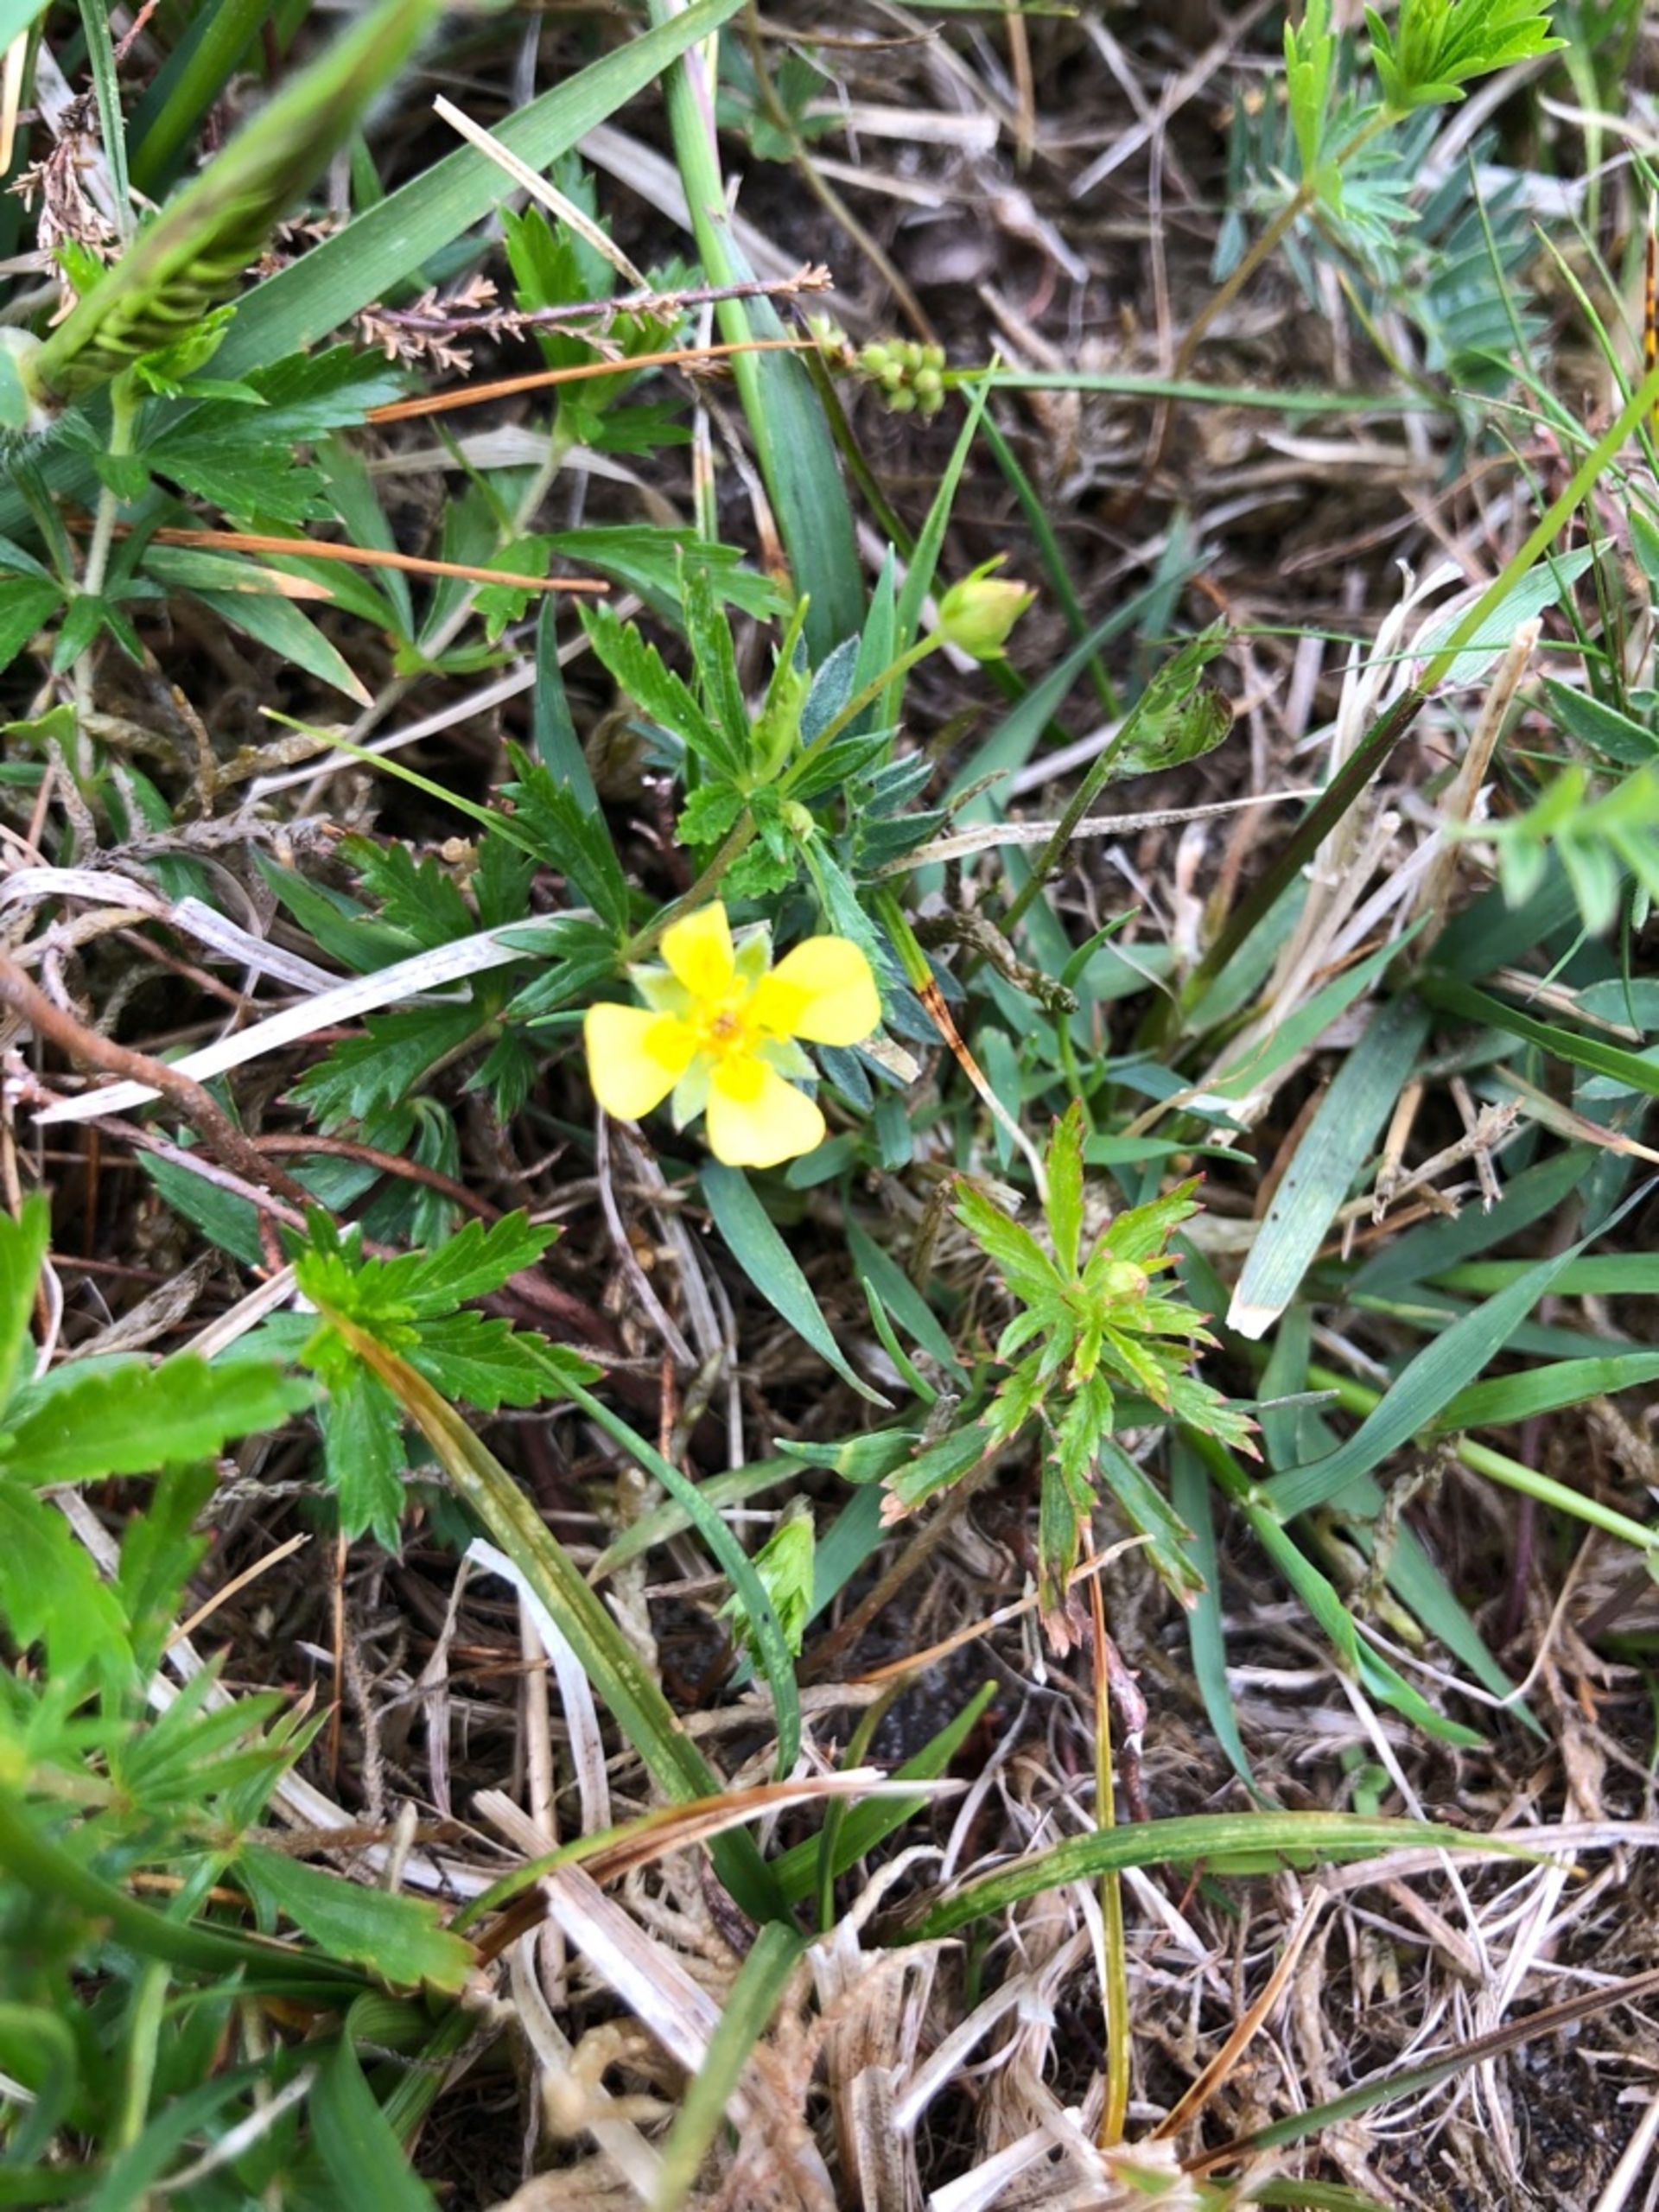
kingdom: Plantae
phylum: Tracheophyta
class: Magnoliopsida
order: Rosales
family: Rosaceae
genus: Potentilla
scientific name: Potentilla erecta
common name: Tormentil
